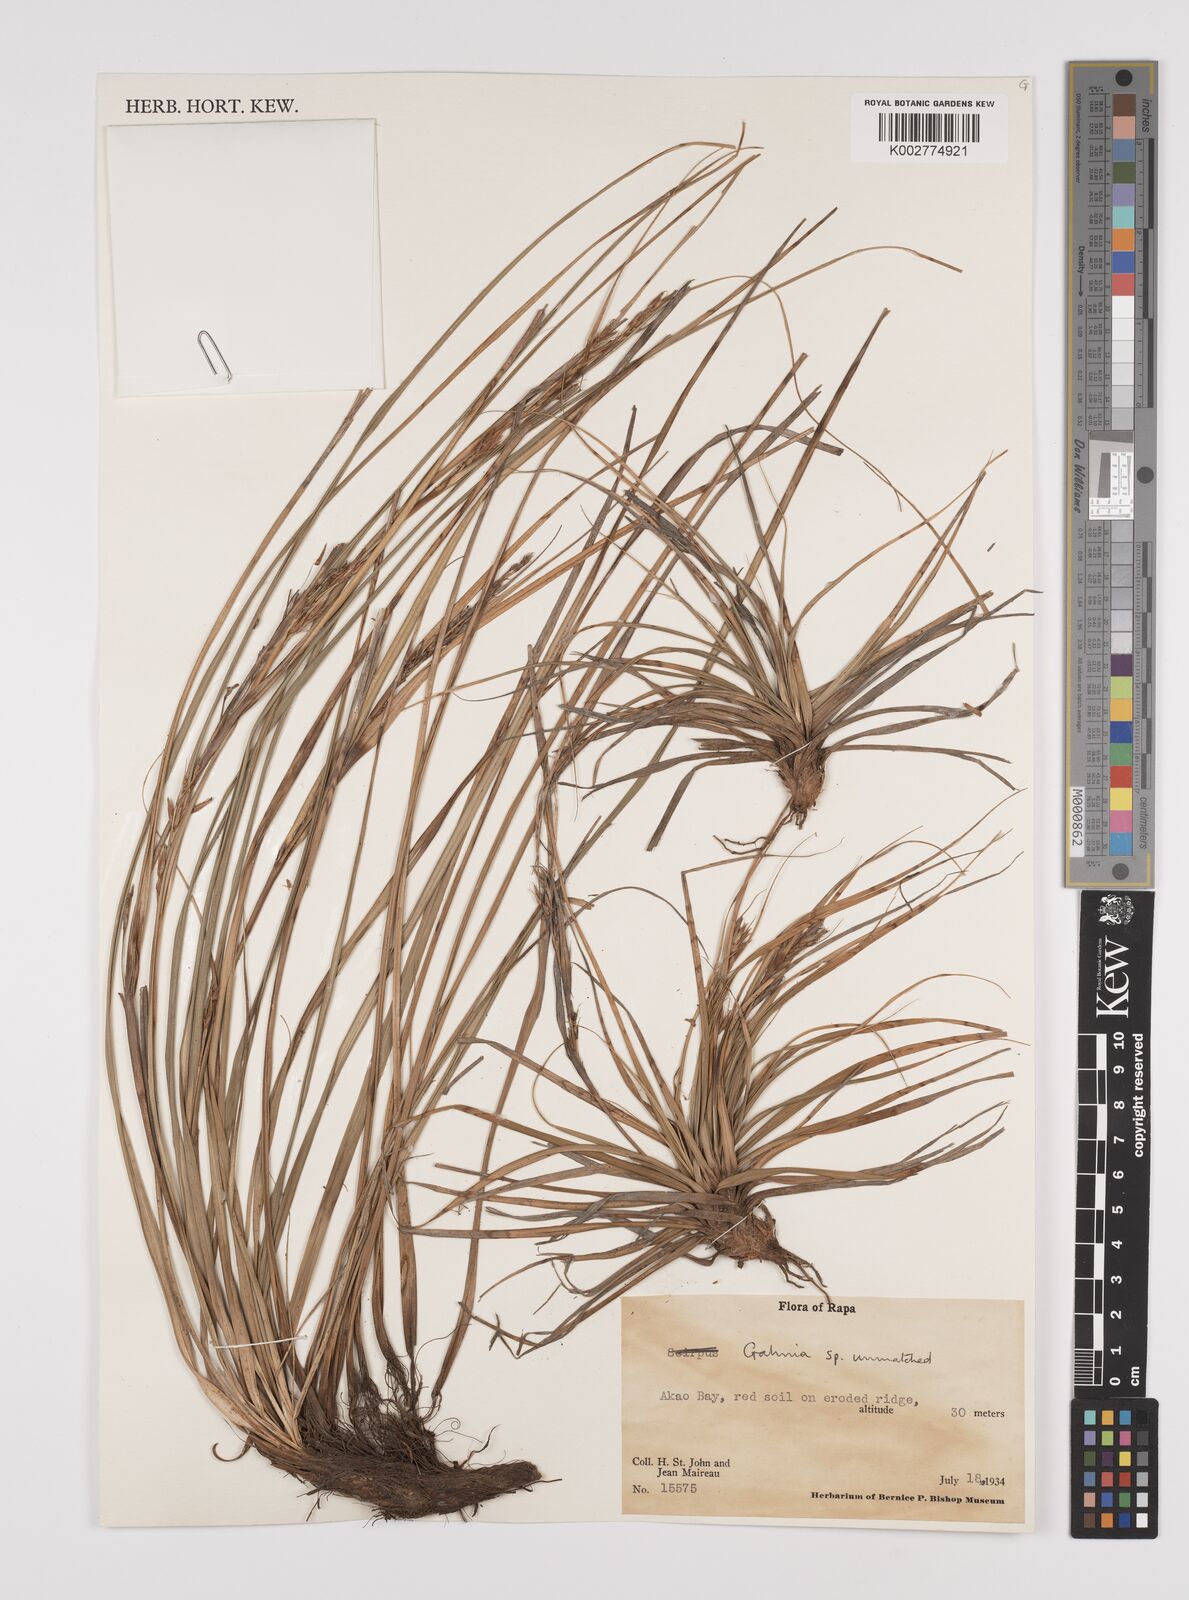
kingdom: Plantae
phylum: Tracheophyta
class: Liliopsida
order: Poales
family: Cyperaceae
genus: Gahnia
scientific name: Gahnia
